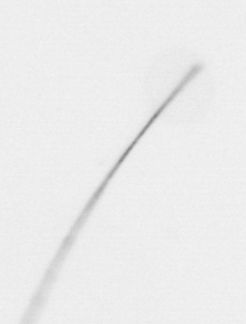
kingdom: Chromista
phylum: Ochrophyta
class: Bacillariophyceae
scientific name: Bacillariophyceae
